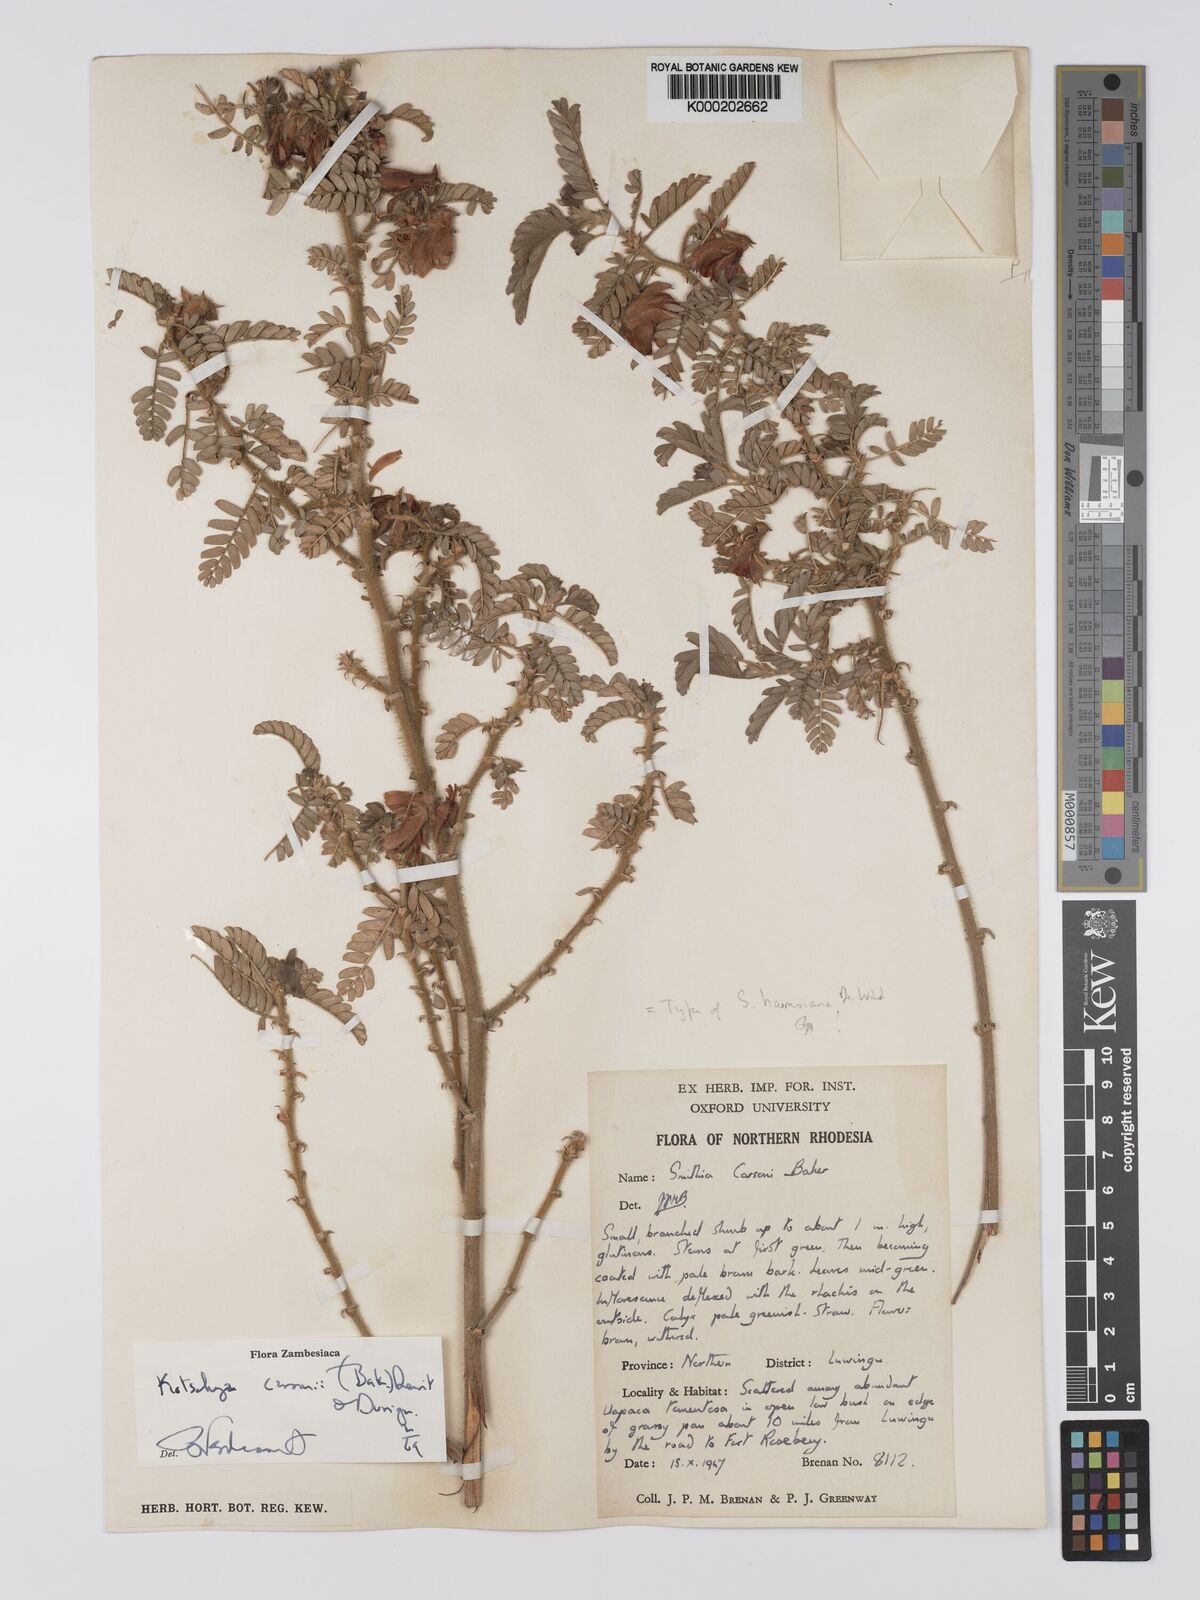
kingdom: Plantae
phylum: Tracheophyta
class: Magnoliopsida
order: Fabales
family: Fabaceae
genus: Kotschya
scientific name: Kotschya carsonii
